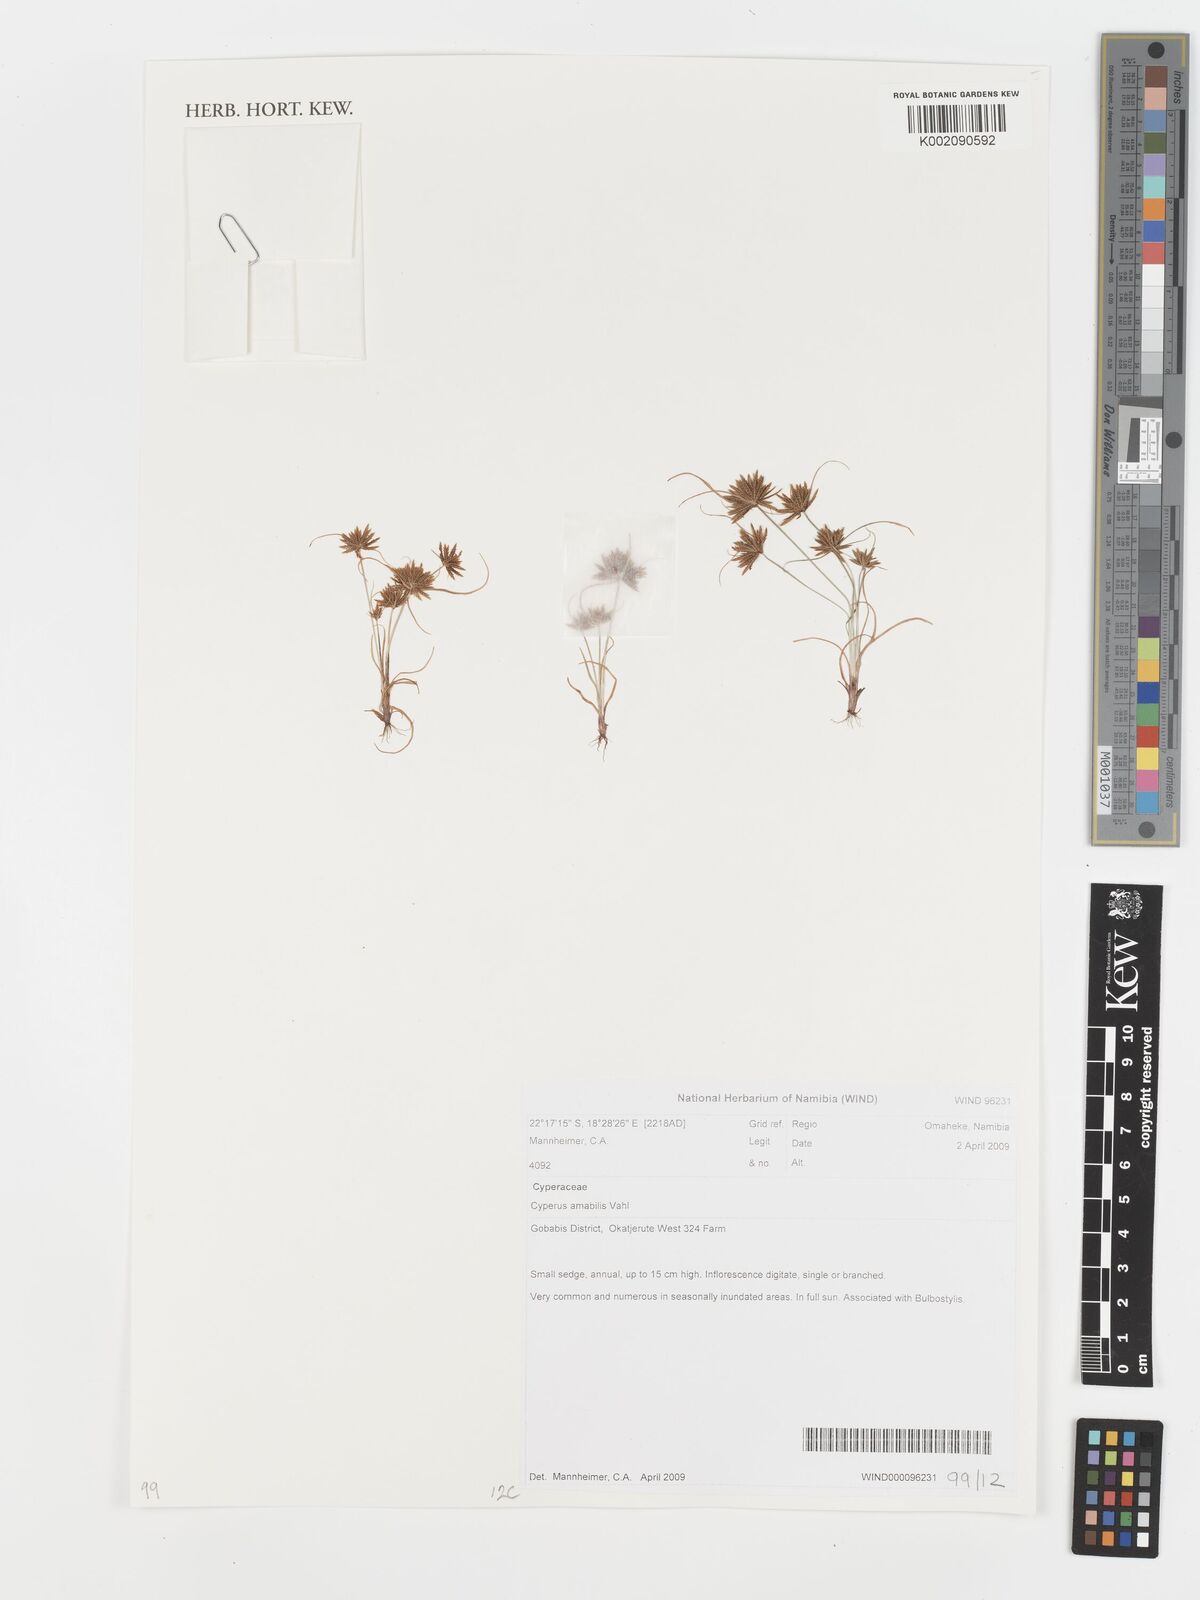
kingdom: Plantae
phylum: Tracheophyta
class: Liliopsida
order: Poales
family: Cyperaceae
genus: Cyperus
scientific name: Cyperus amabilis
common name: Foothill flat sedge
